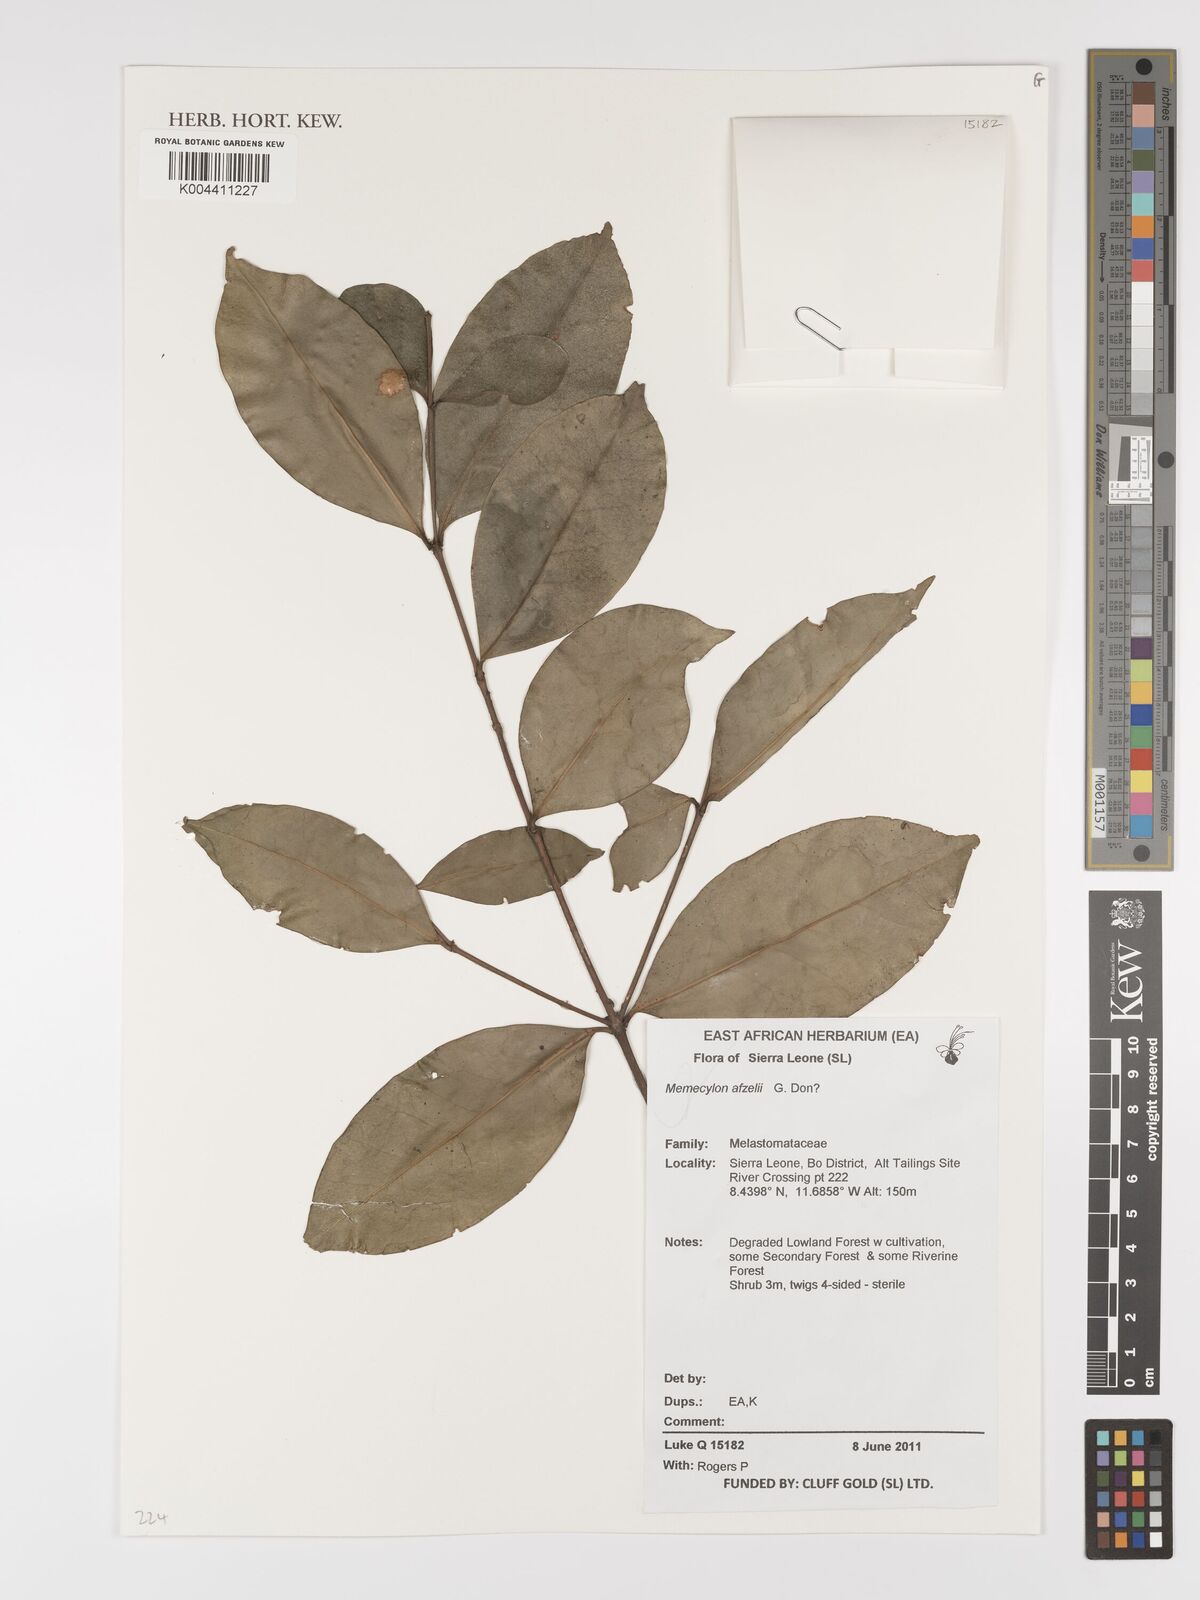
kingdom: Plantae
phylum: Tracheophyta
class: Magnoliopsida
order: Myrtales
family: Melastomataceae
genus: Memecylon
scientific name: Memecylon afzelii
